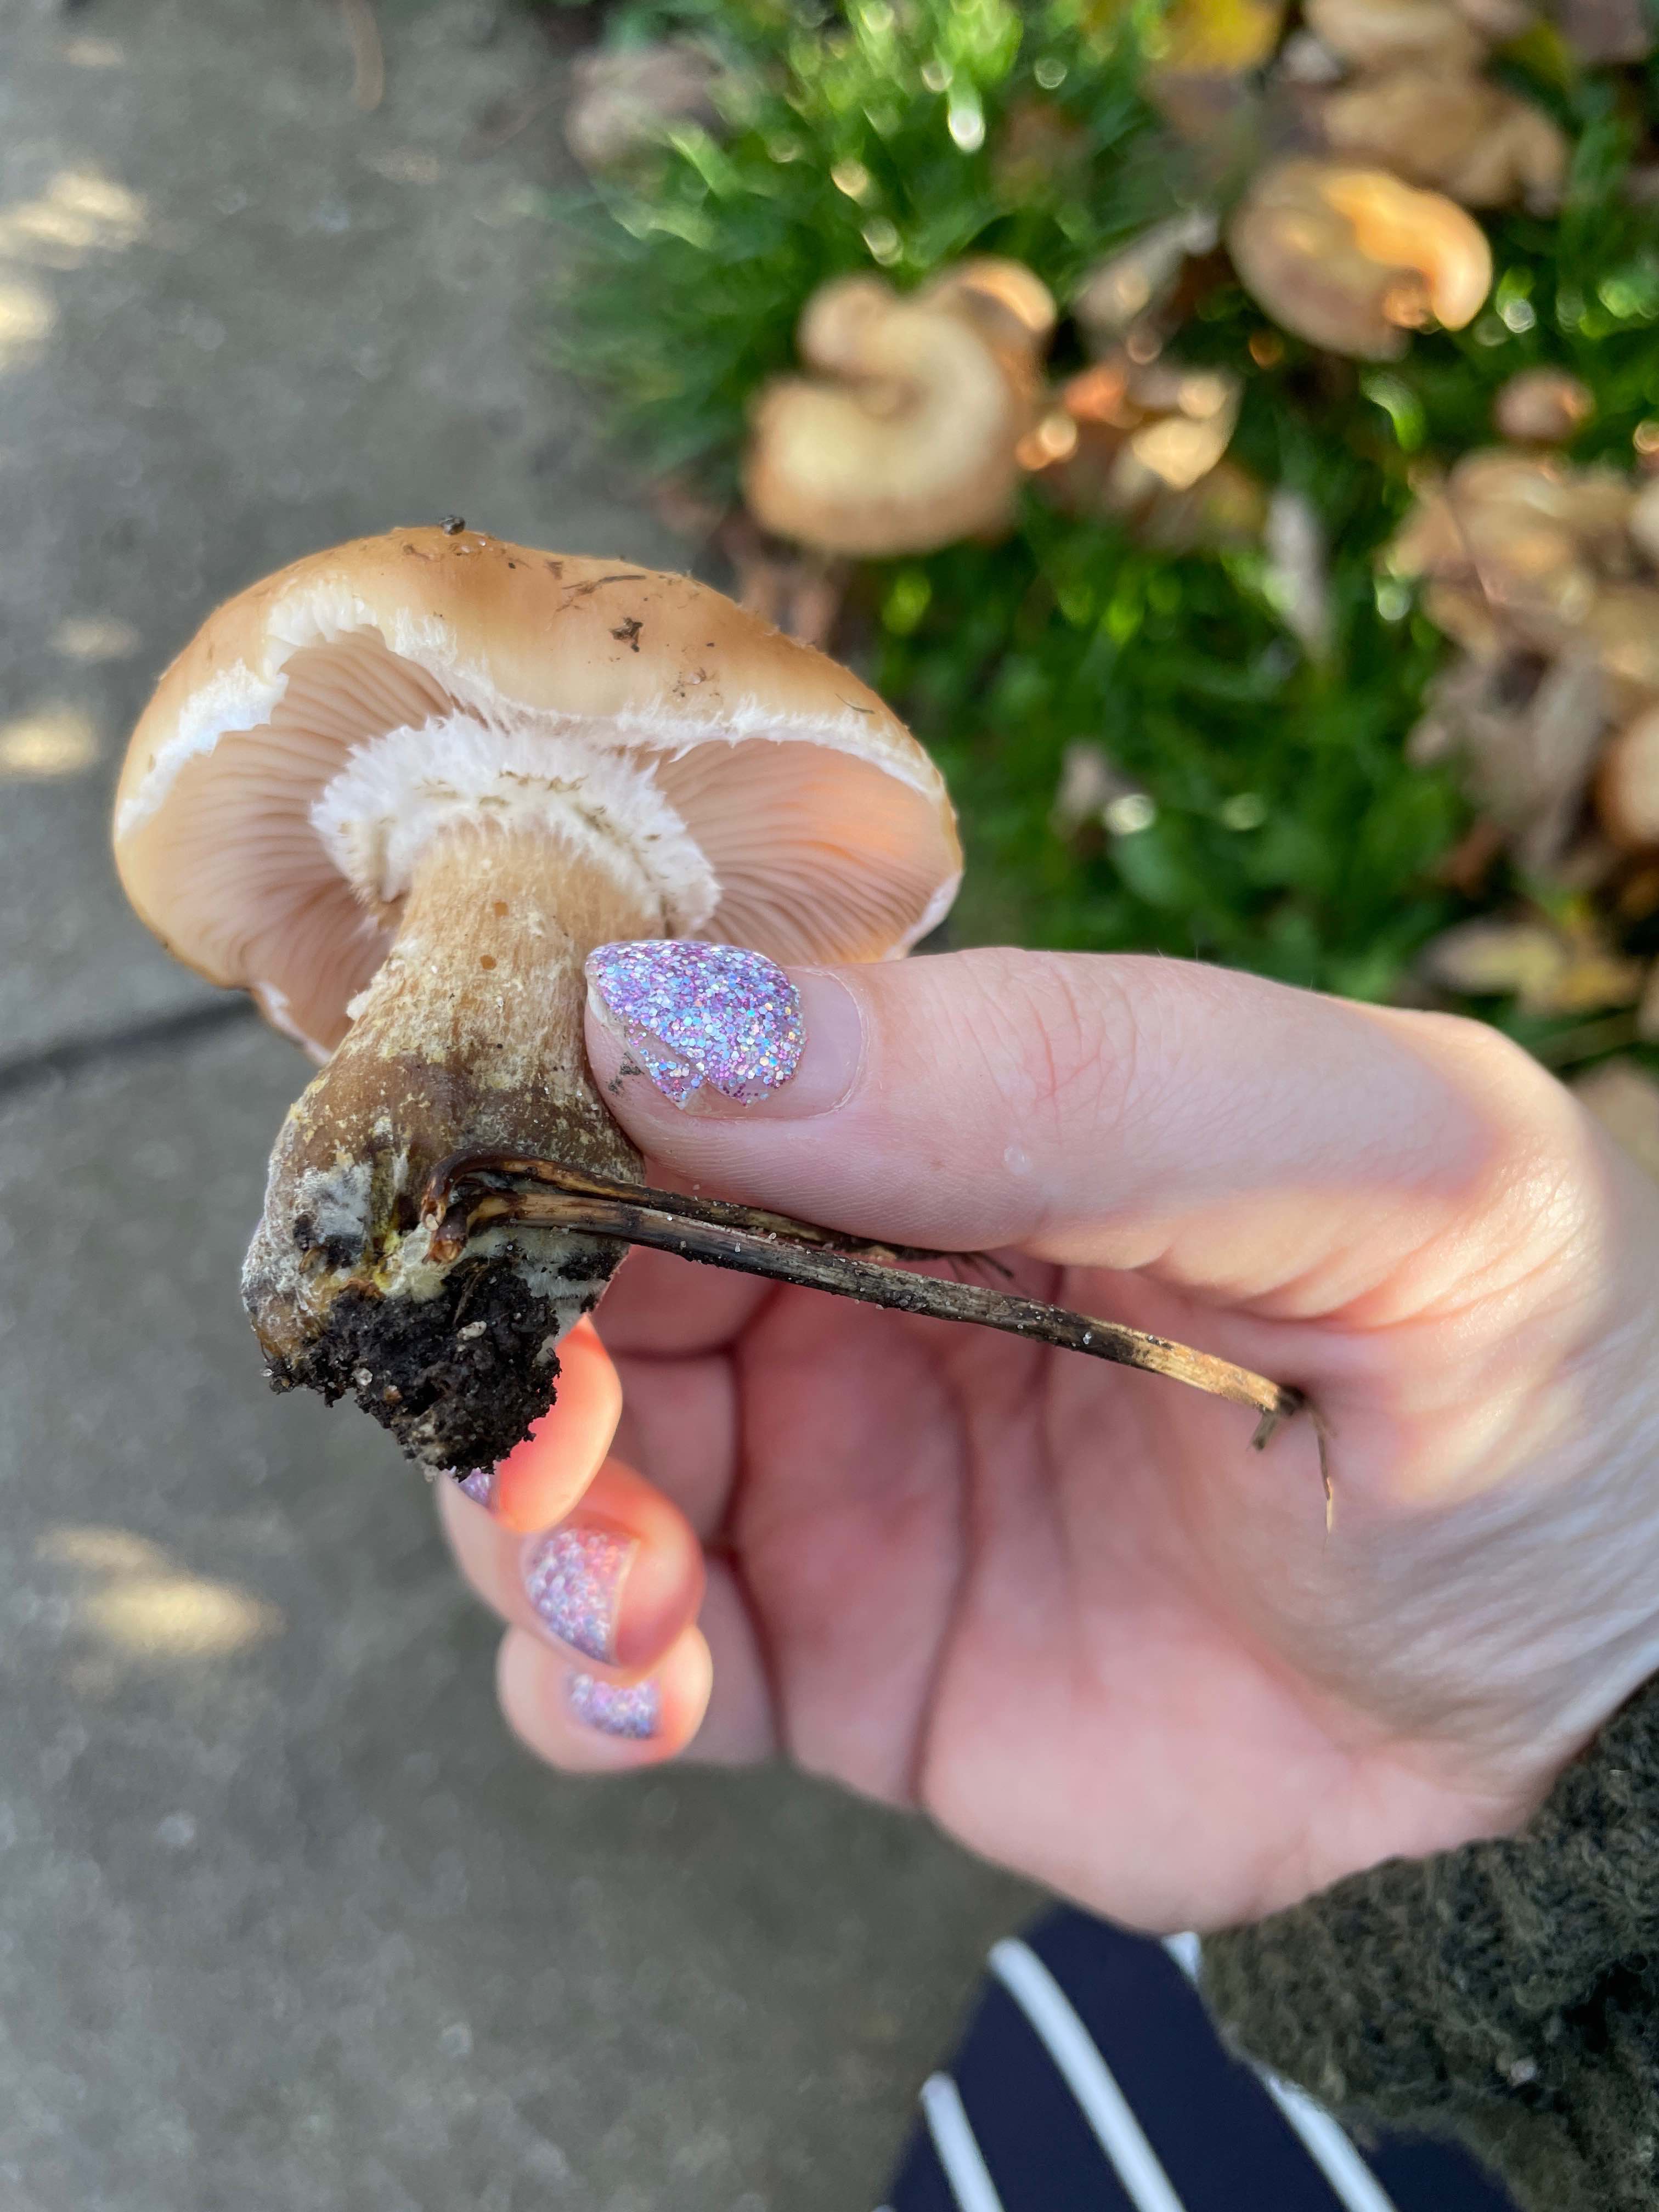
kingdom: Fungi
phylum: Basidiomycota
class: Agaricomycetes
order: Agaricales
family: Physalacriaceae
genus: Armillaria
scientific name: Armillaria lutea
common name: køllestokket honningsvamp
